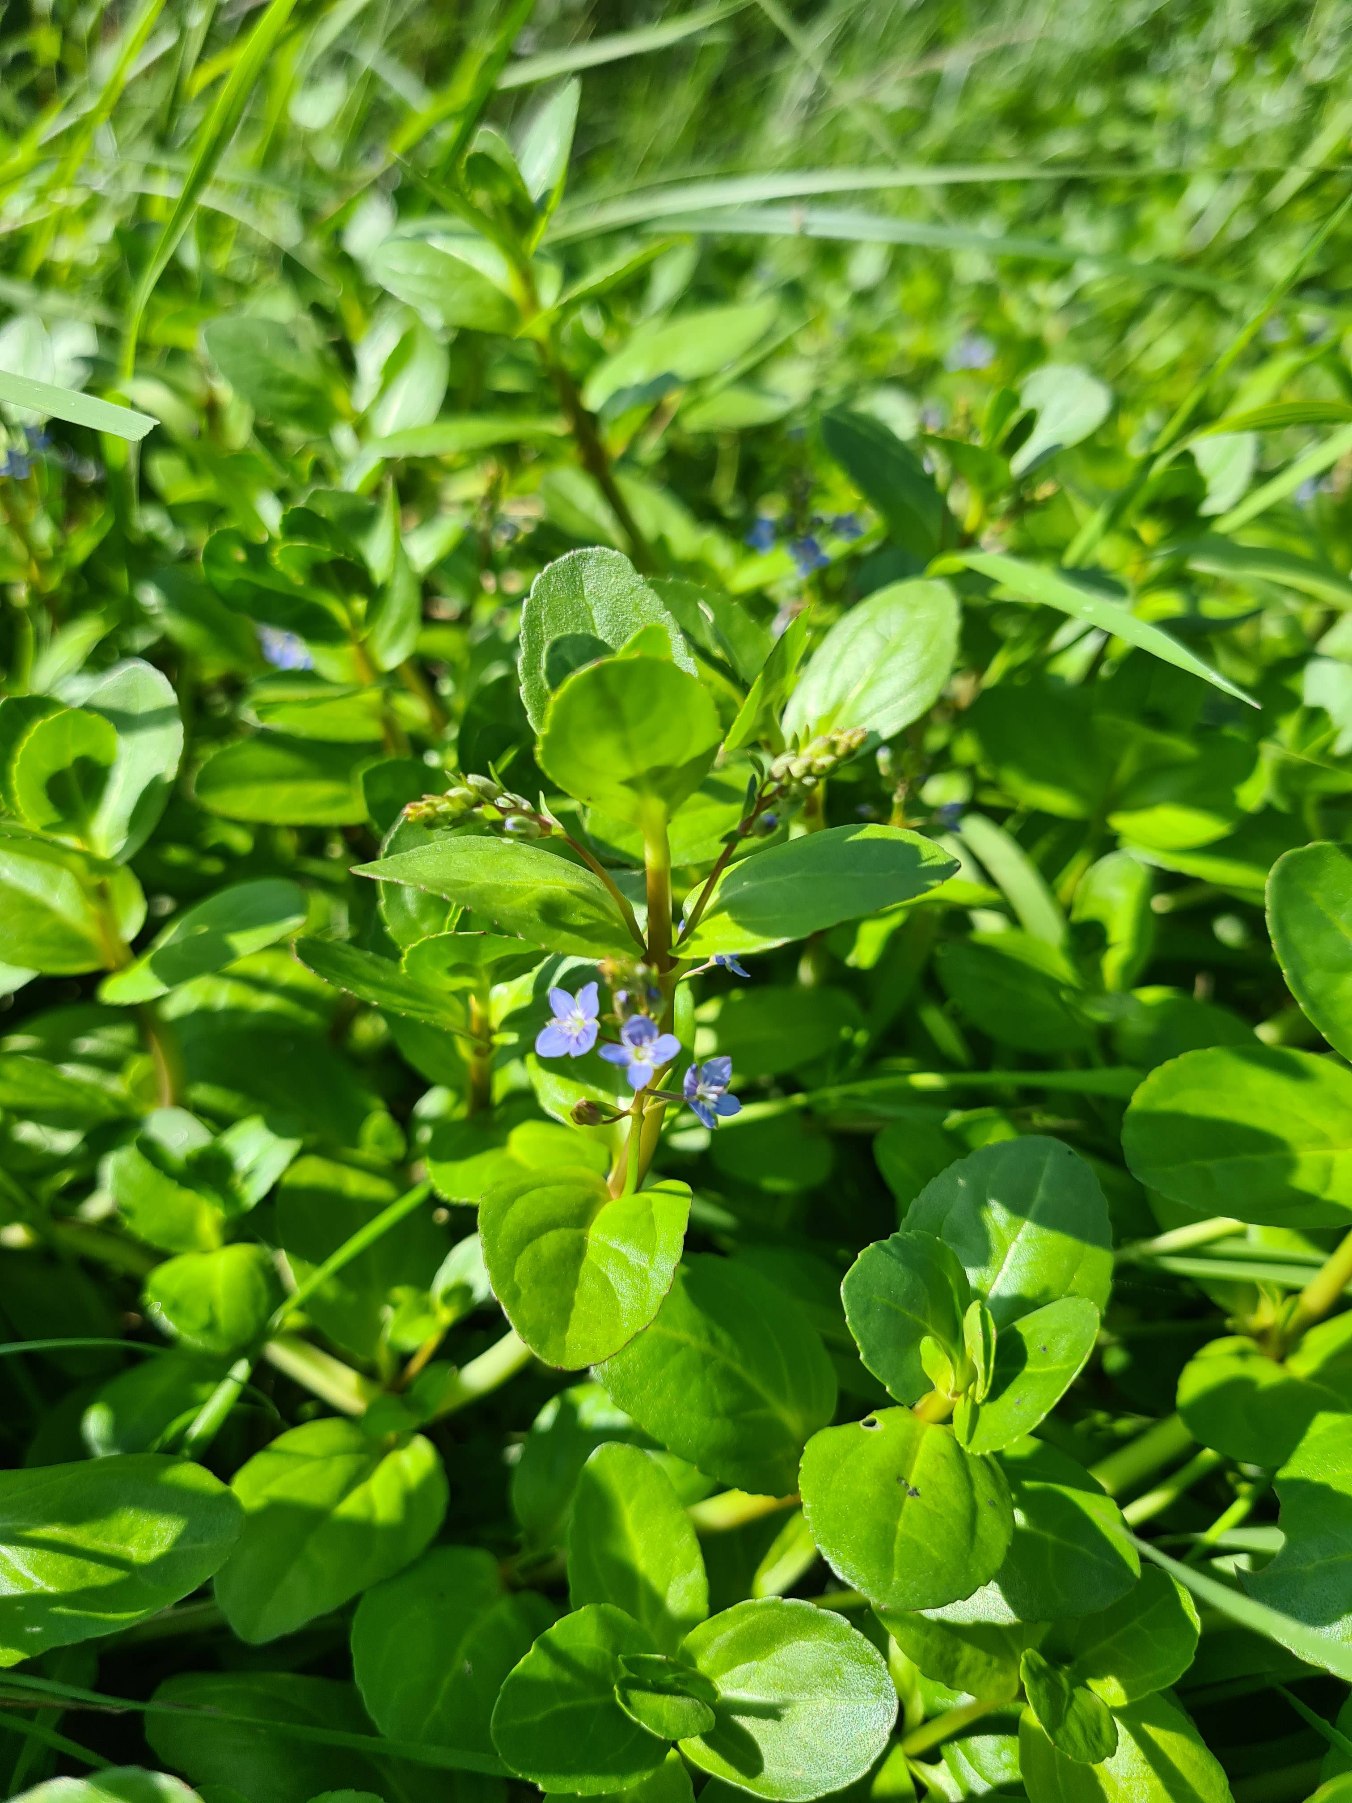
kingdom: Plantae
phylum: Tracheophyta
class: Magnoliopsida
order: Lamiales
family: Plantaginaceae
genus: Veronica
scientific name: Veronica beccabunga
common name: Tykbladet ærenpris
